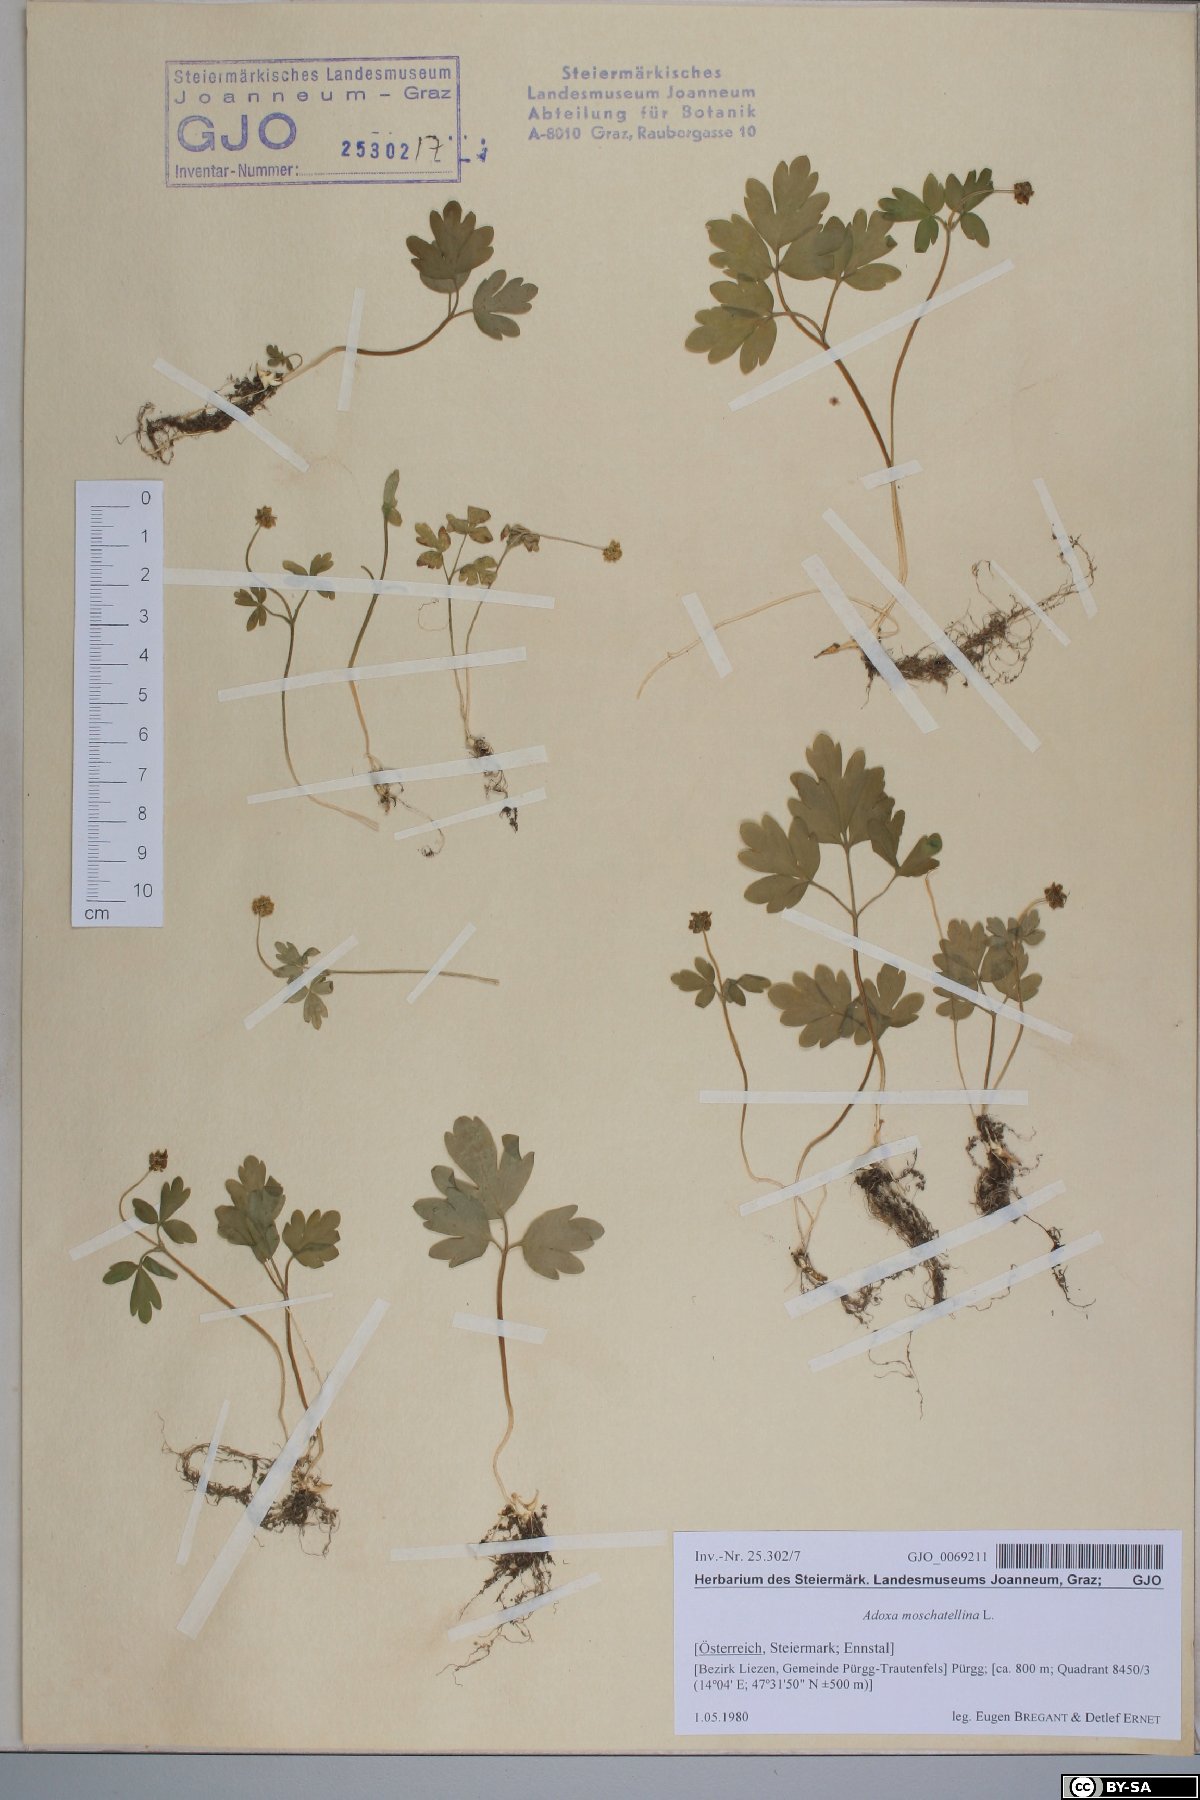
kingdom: Plantae
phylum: Tracheophyta
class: Magnoliopsida
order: Dipsacales
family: Viburnaceae
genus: Adoxa
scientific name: Adoxa moschatellina
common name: Moschatel
